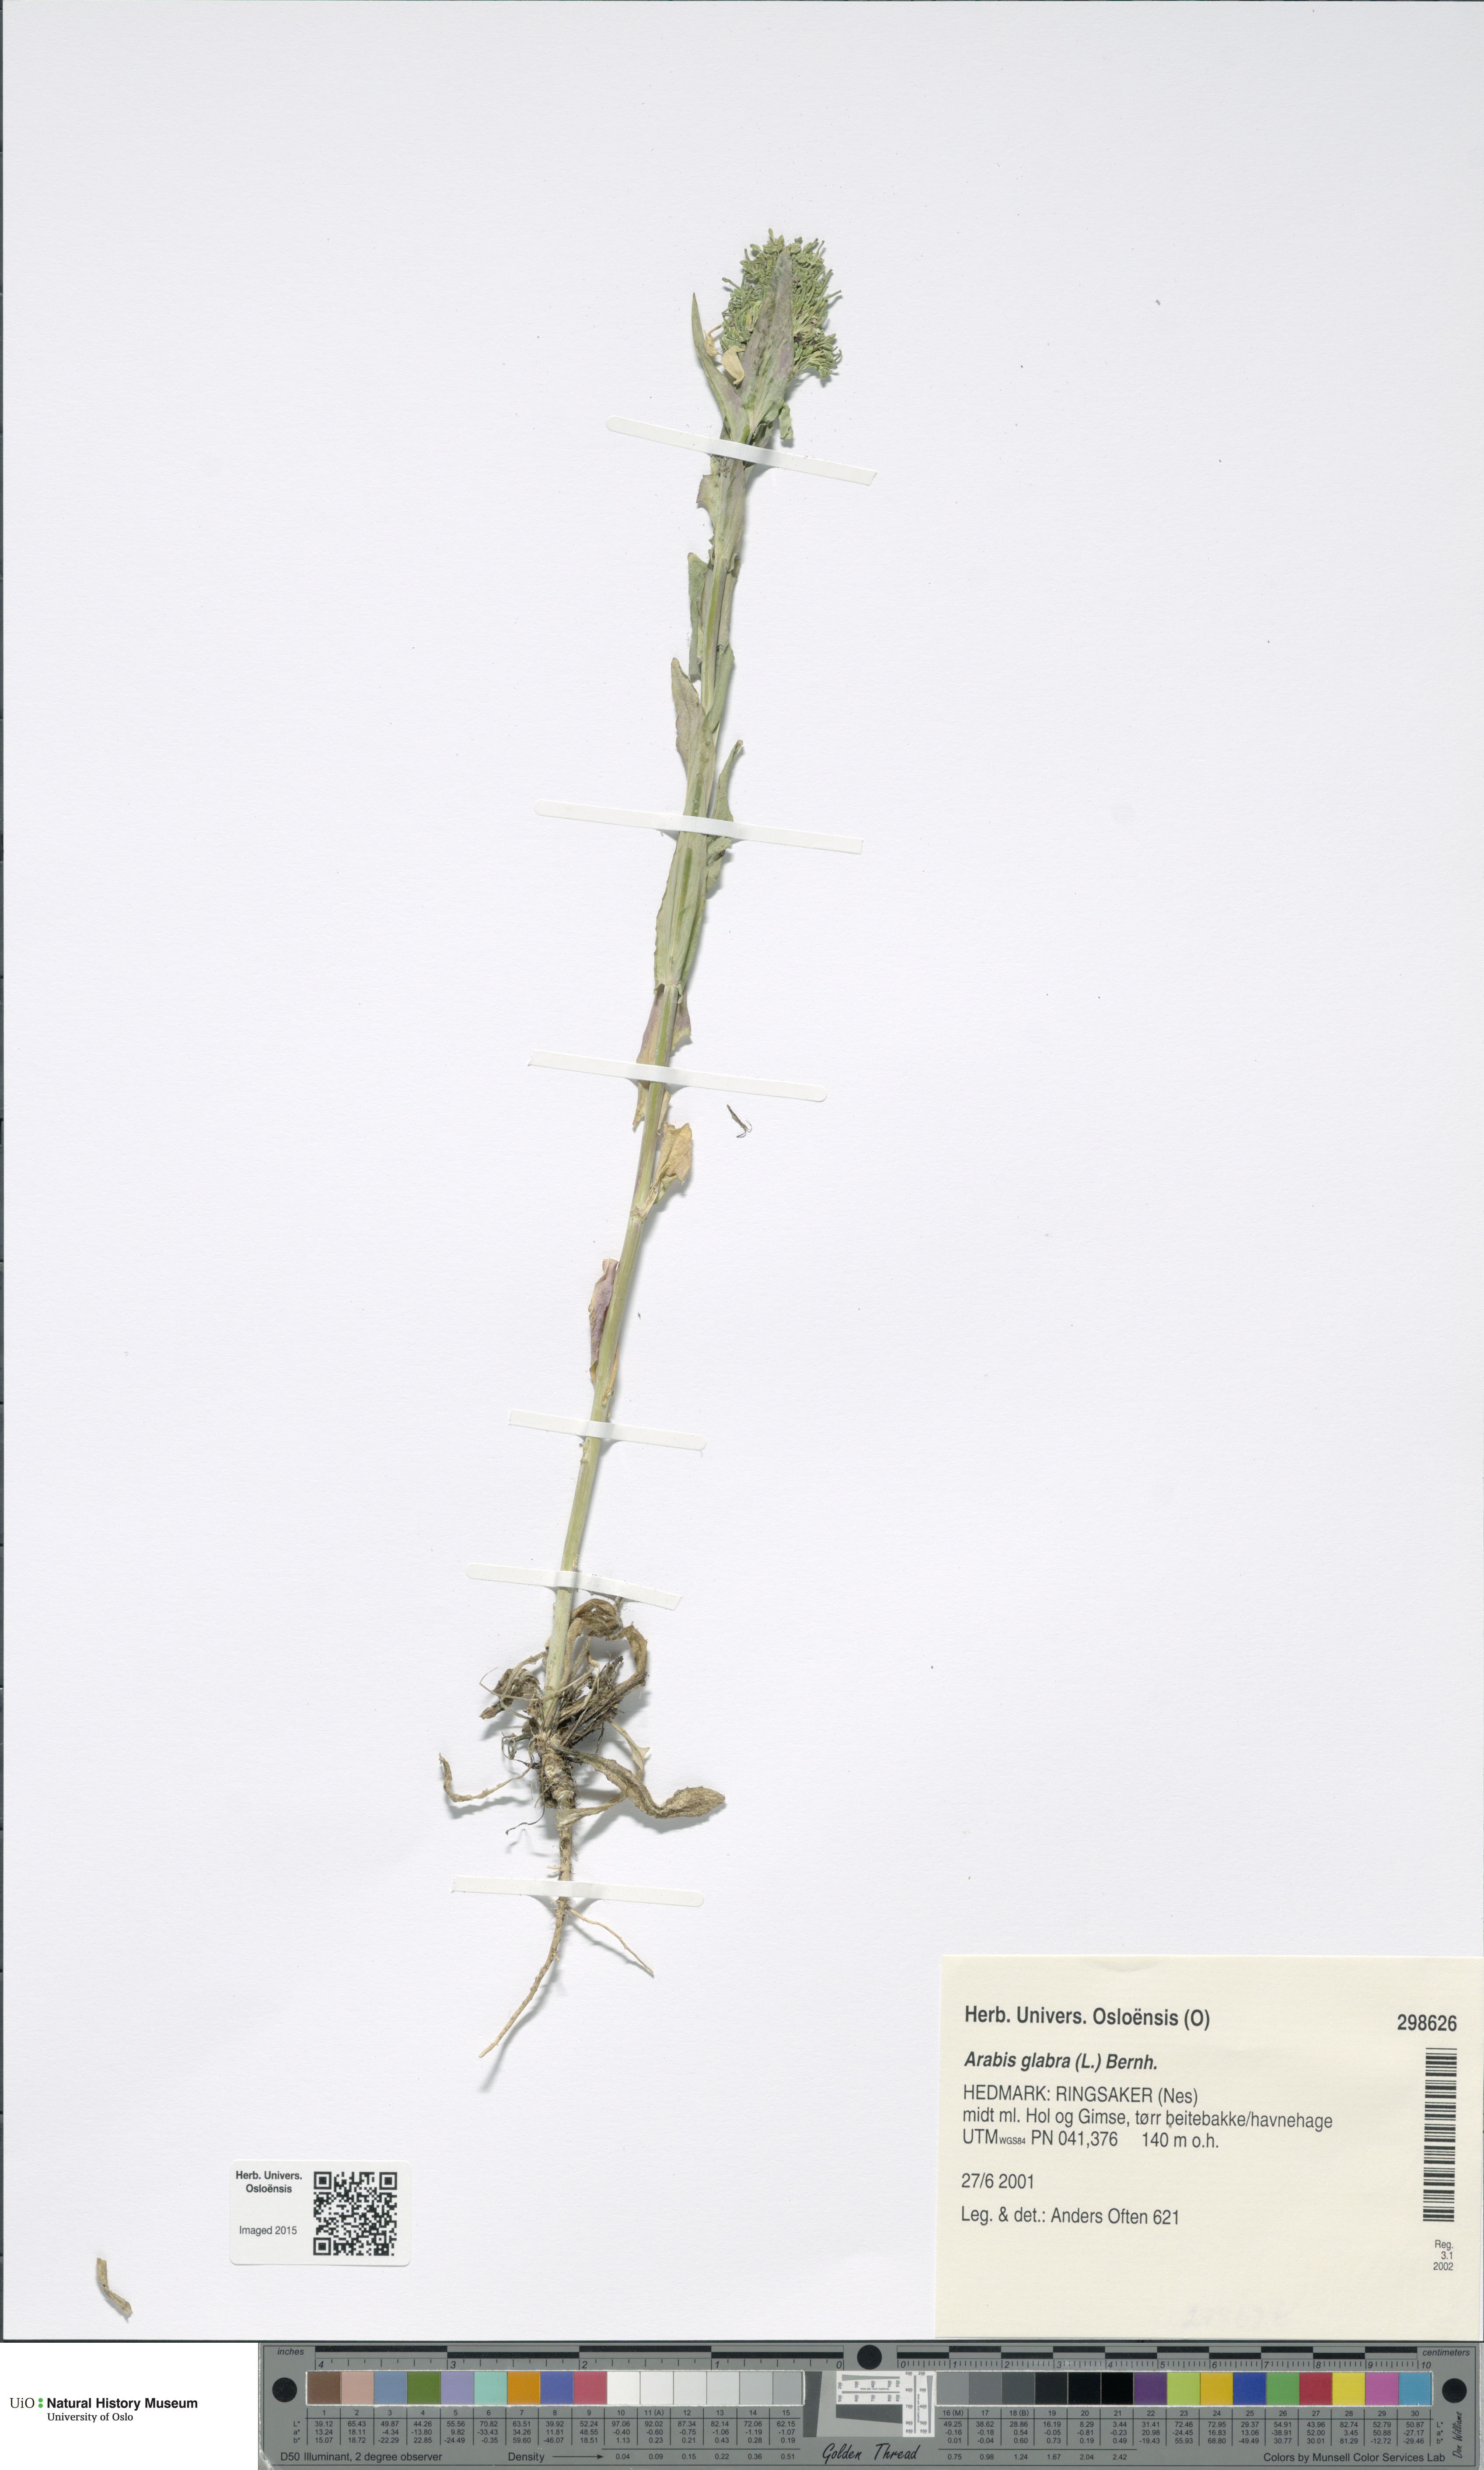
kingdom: Plantae
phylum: Tracheophyta
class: Magnoliopsida
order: Brassicales
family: Brassicaceae
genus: Turritis
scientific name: Turritis glabra
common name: Tower rockcress
